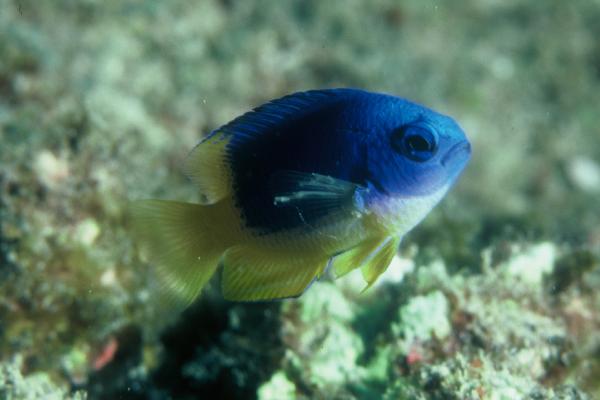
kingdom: Animalia
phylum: Chordata
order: Perciformes
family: Pomacentridae
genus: Pomacentrus
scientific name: Pomacentrus caeruleus
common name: Caerulean damsel
